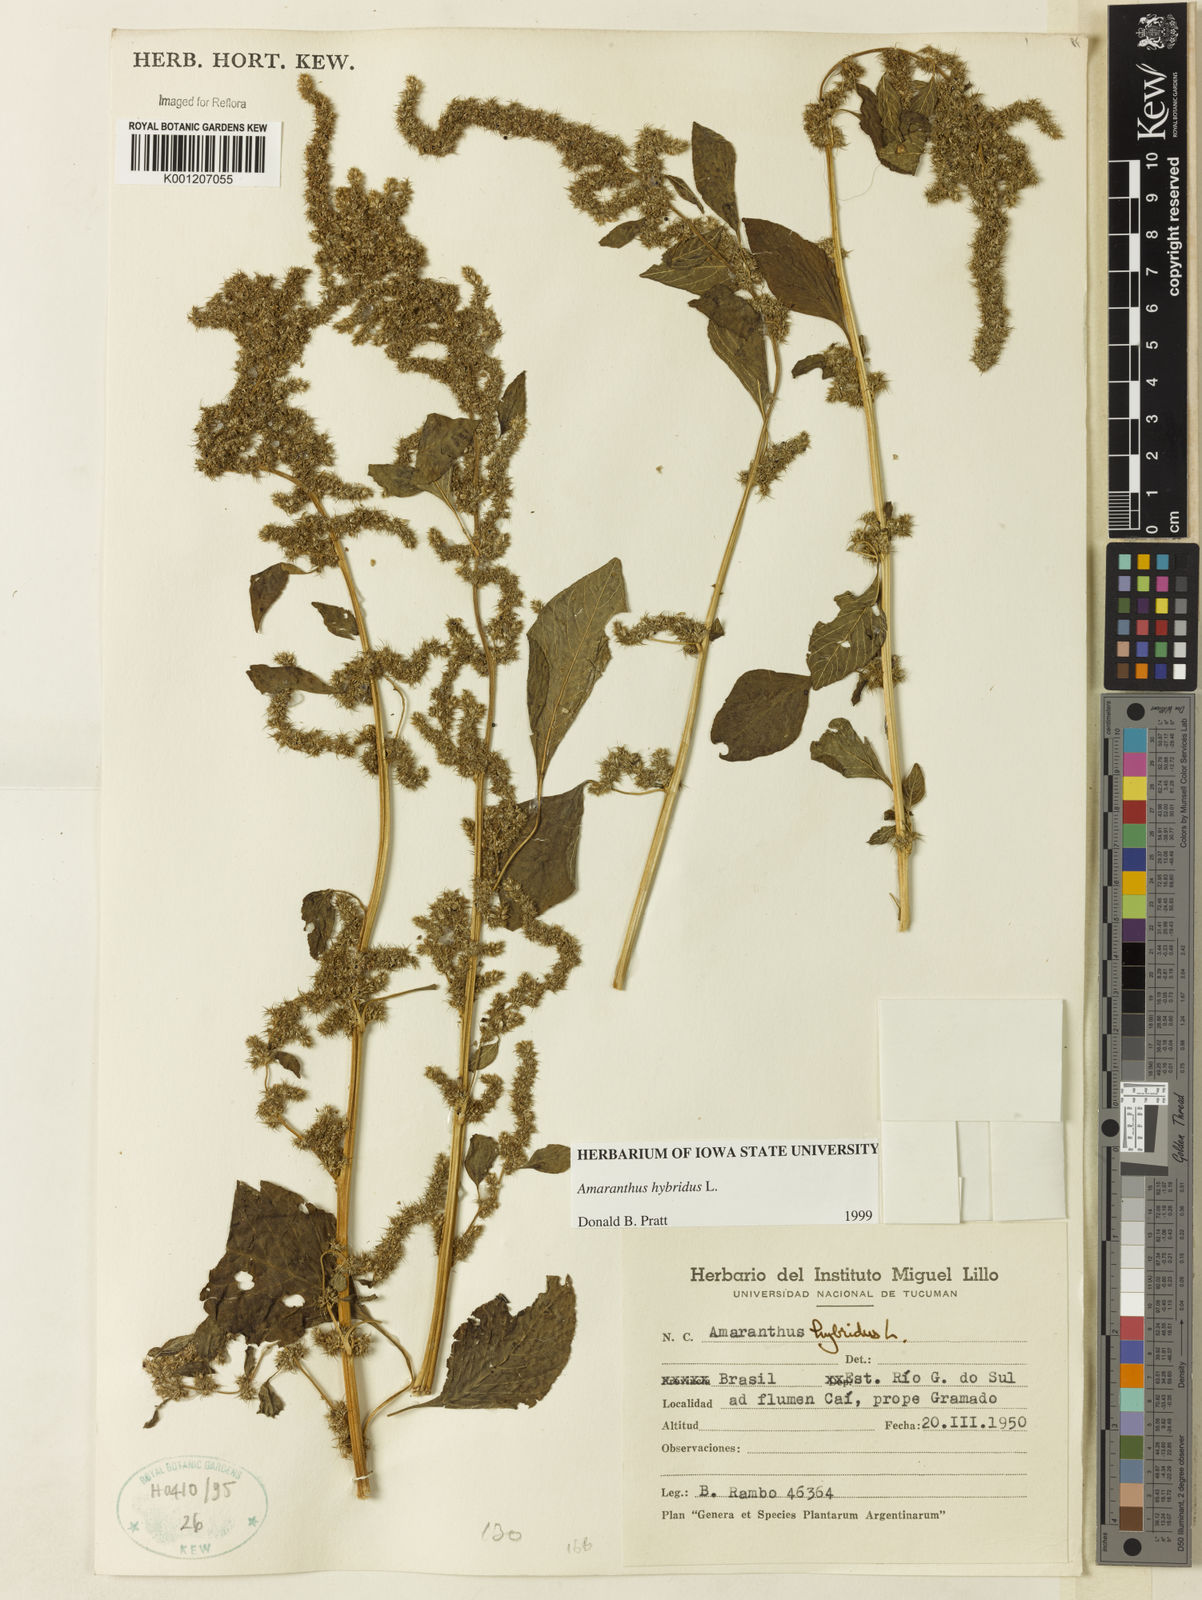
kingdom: Plantae
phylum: Tracheophyta
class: Magnoliopsida
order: Caryophyllales
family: Amaranthaceae
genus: Amaranthus
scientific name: Amaranthus hybridus
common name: Green amaranth
